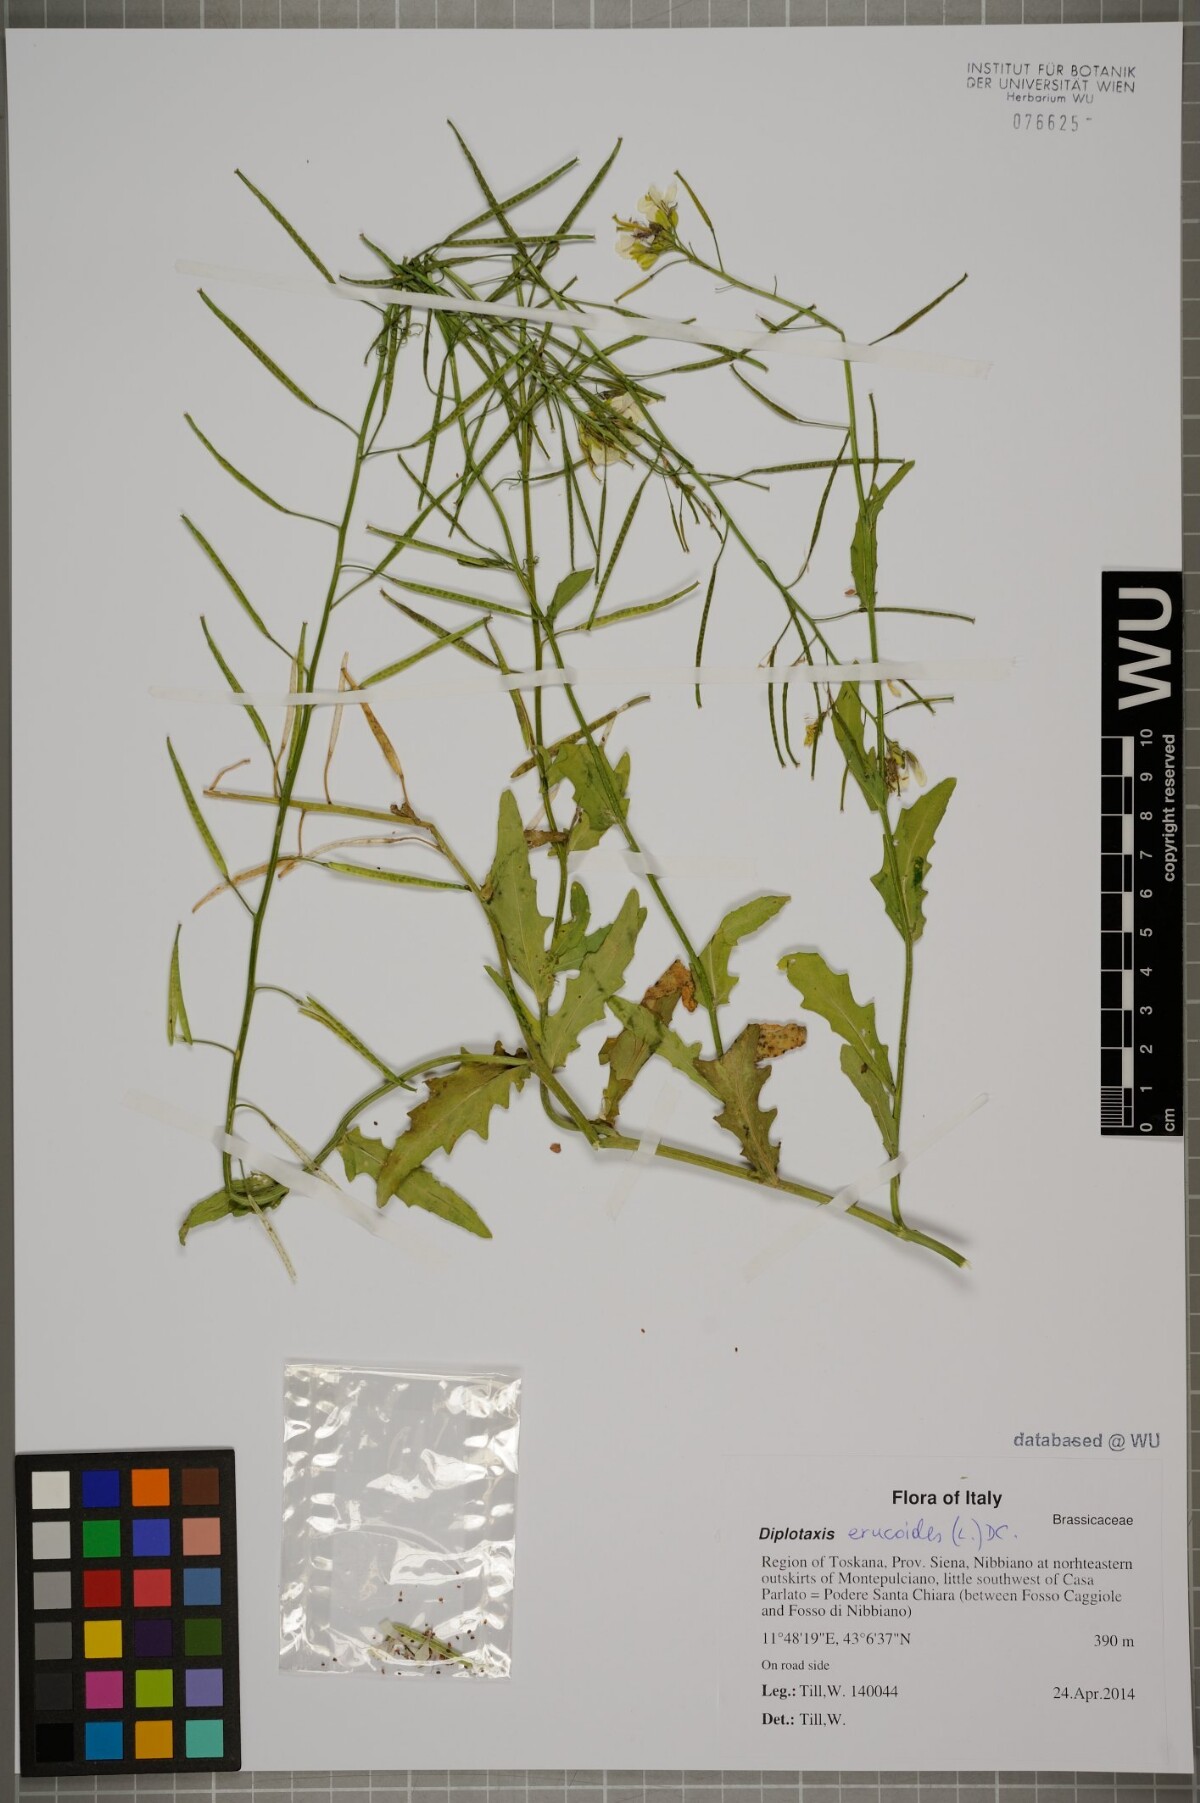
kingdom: Plantae
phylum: Tracheophyta
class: Magnoliopsida
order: Brassicales
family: Brassicaceae
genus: Diplotaxis
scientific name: Diplotaxis erucoides
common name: White rocket
